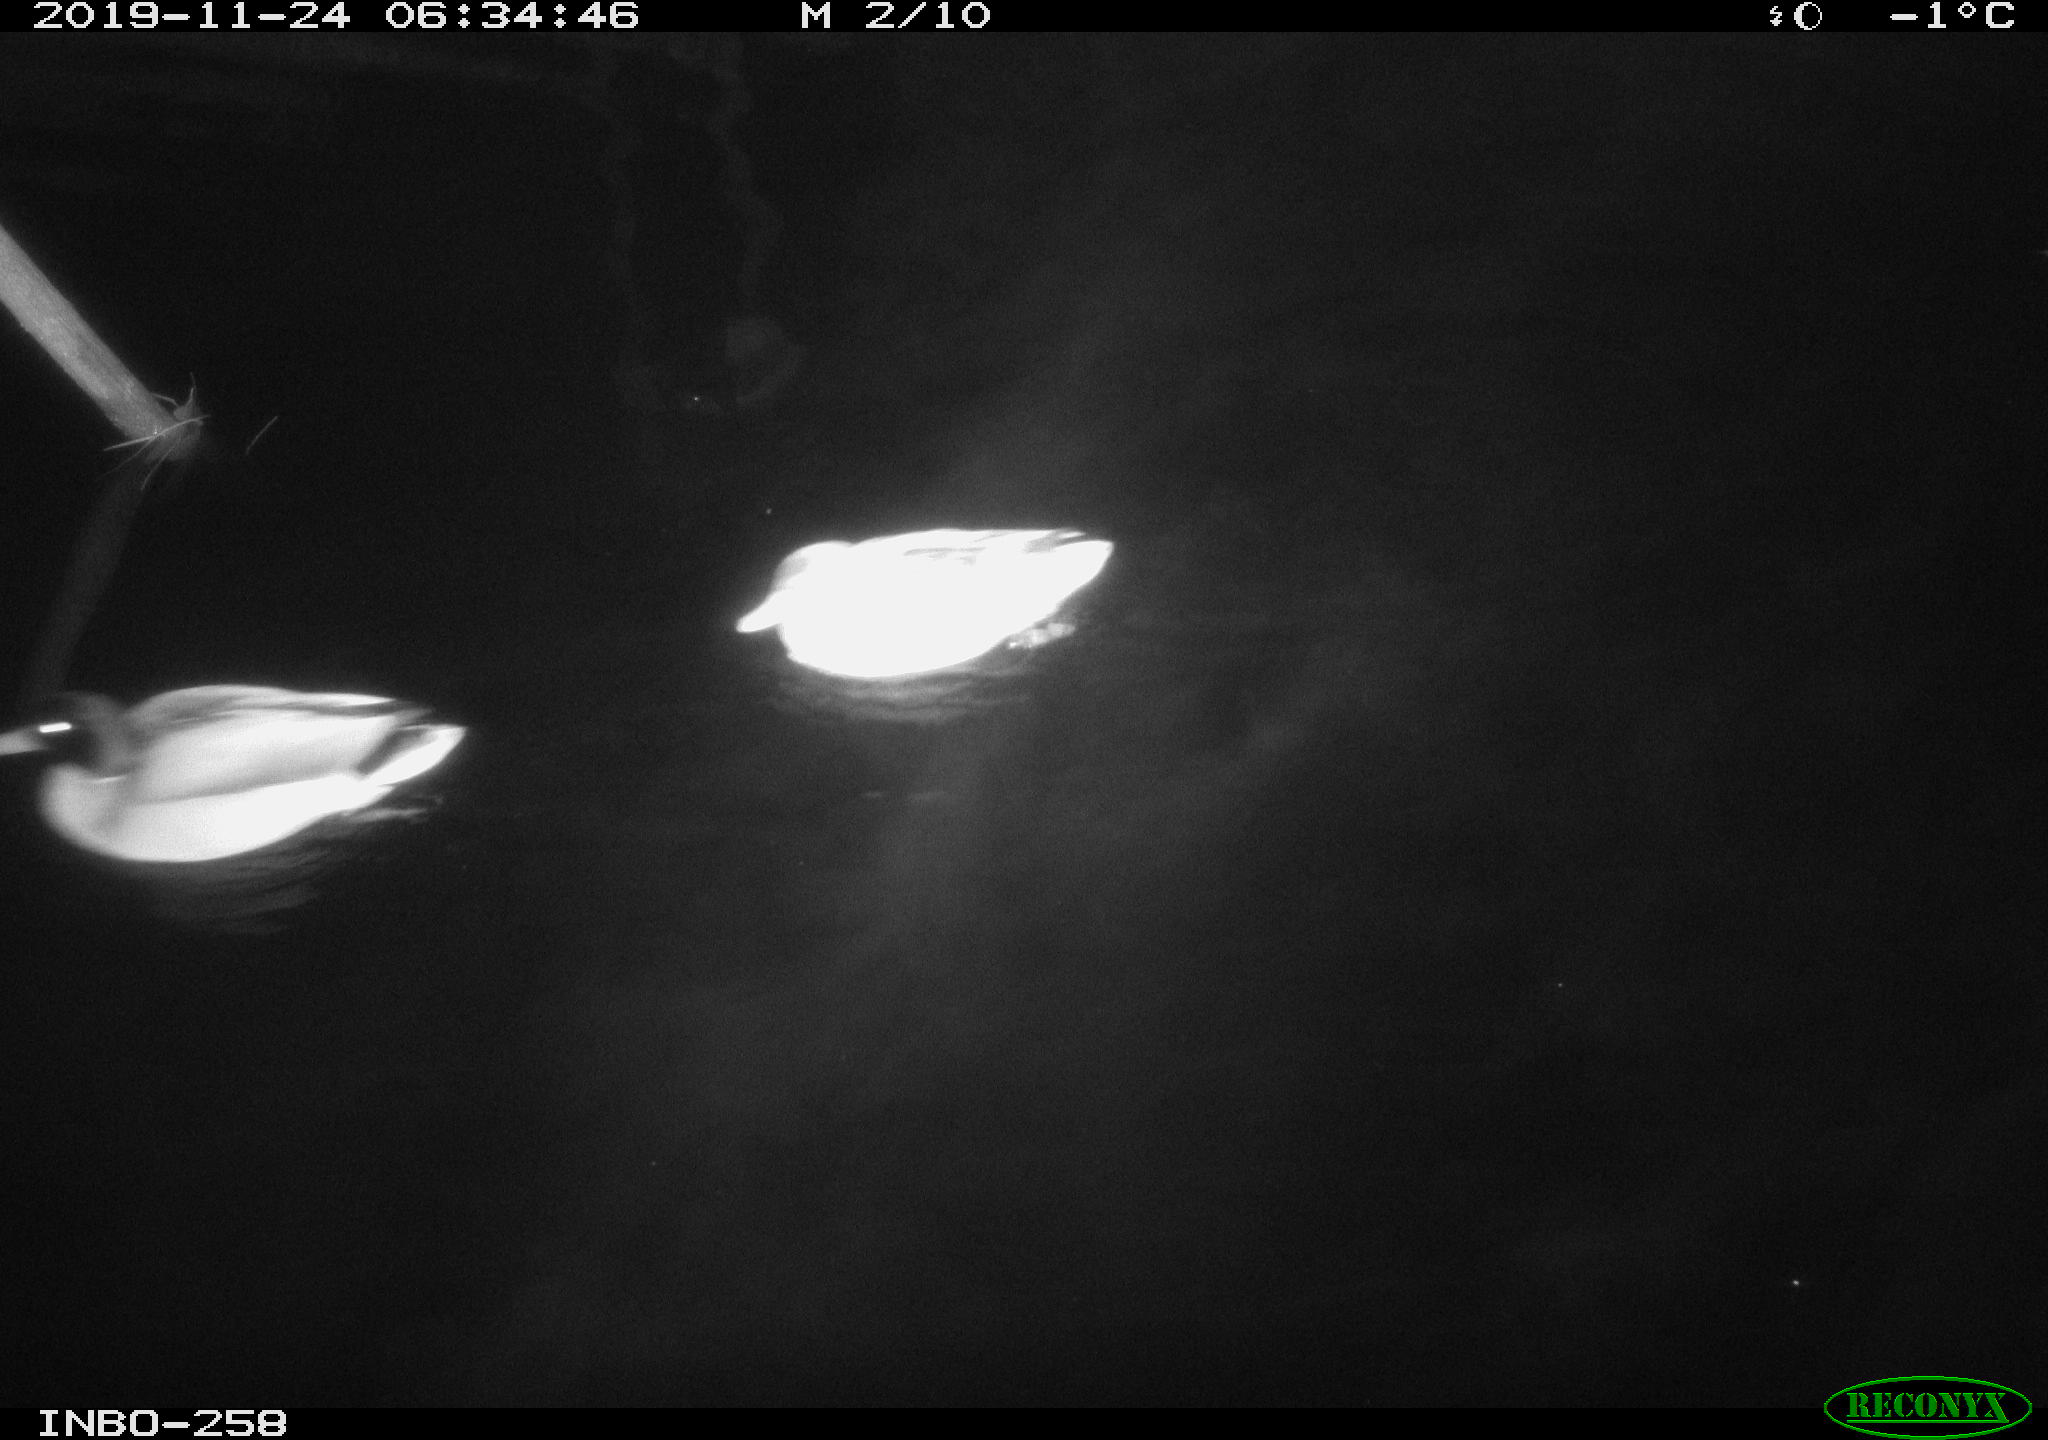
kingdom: Animalia
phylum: Chordata
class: Aves
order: Anseriformes
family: Anatidae
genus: Anas
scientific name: Anas platyrhynchos
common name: Mallard
